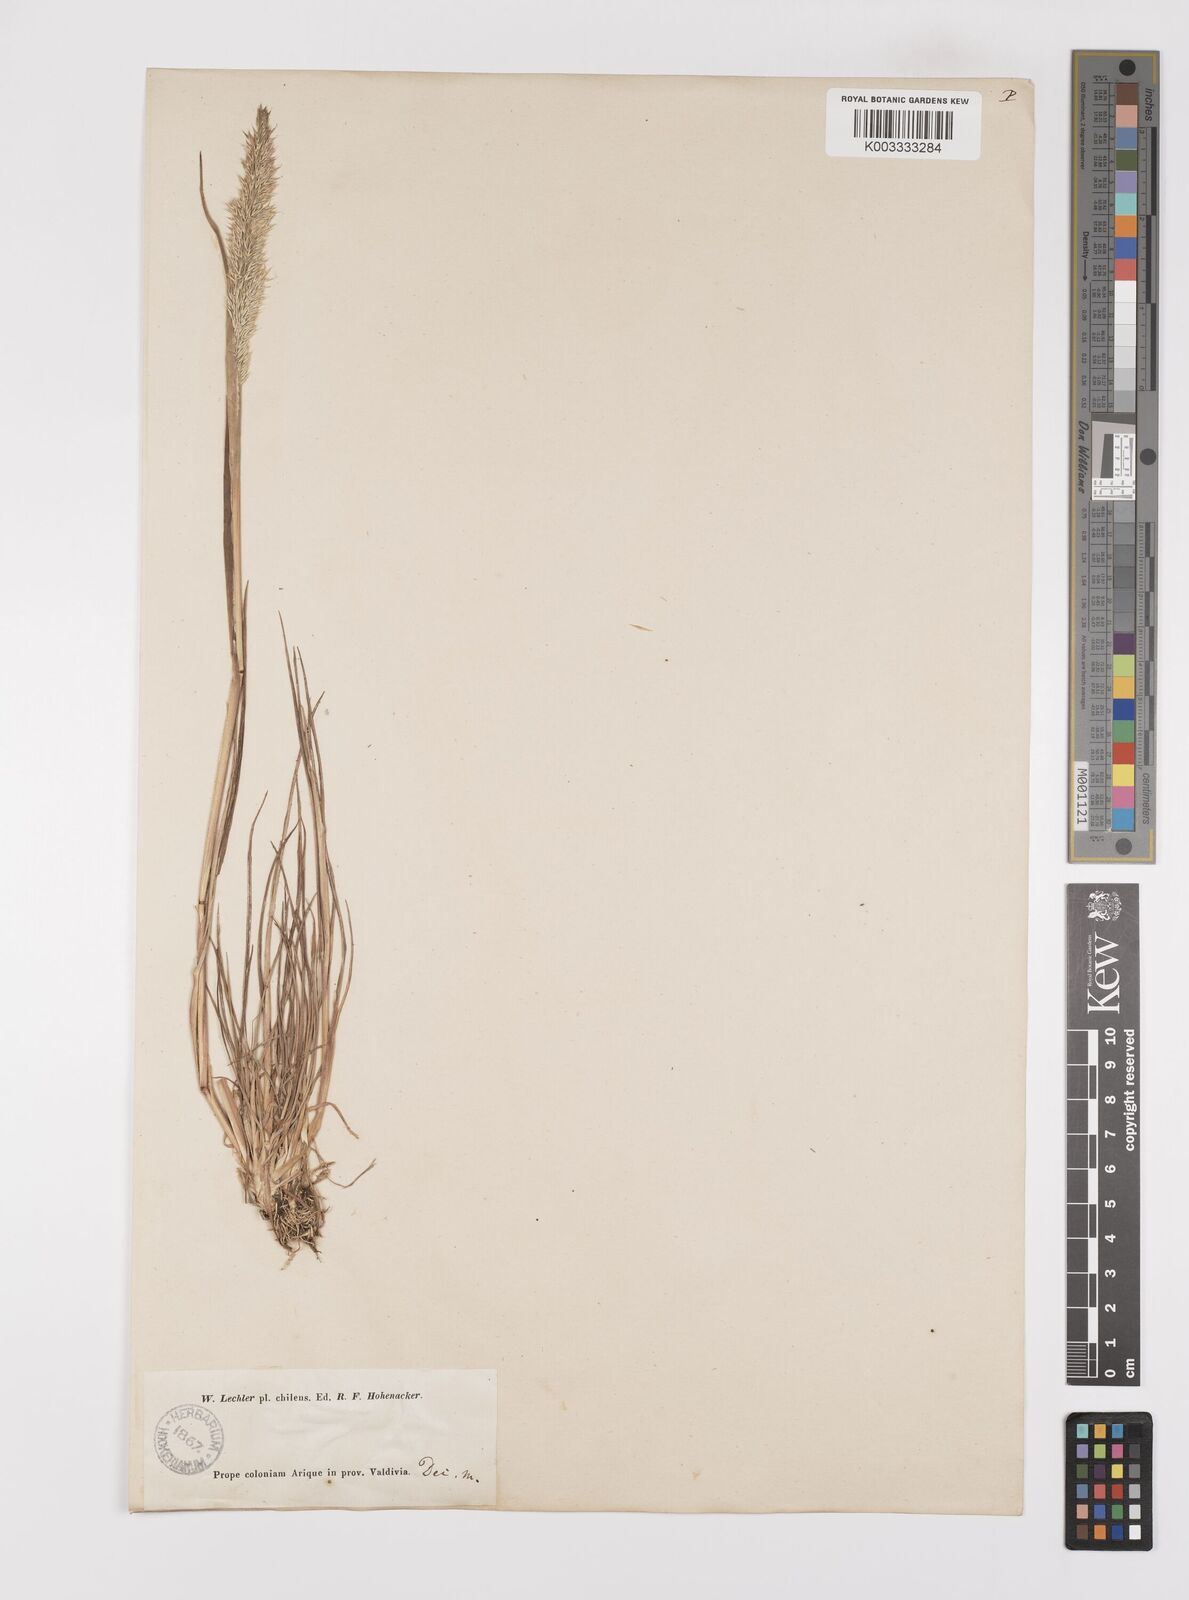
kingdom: Plantae
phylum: Tracheophyta
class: Liliopsida
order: Poales
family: Poaceae
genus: Polypogon
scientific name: Polypogon magellanicus
